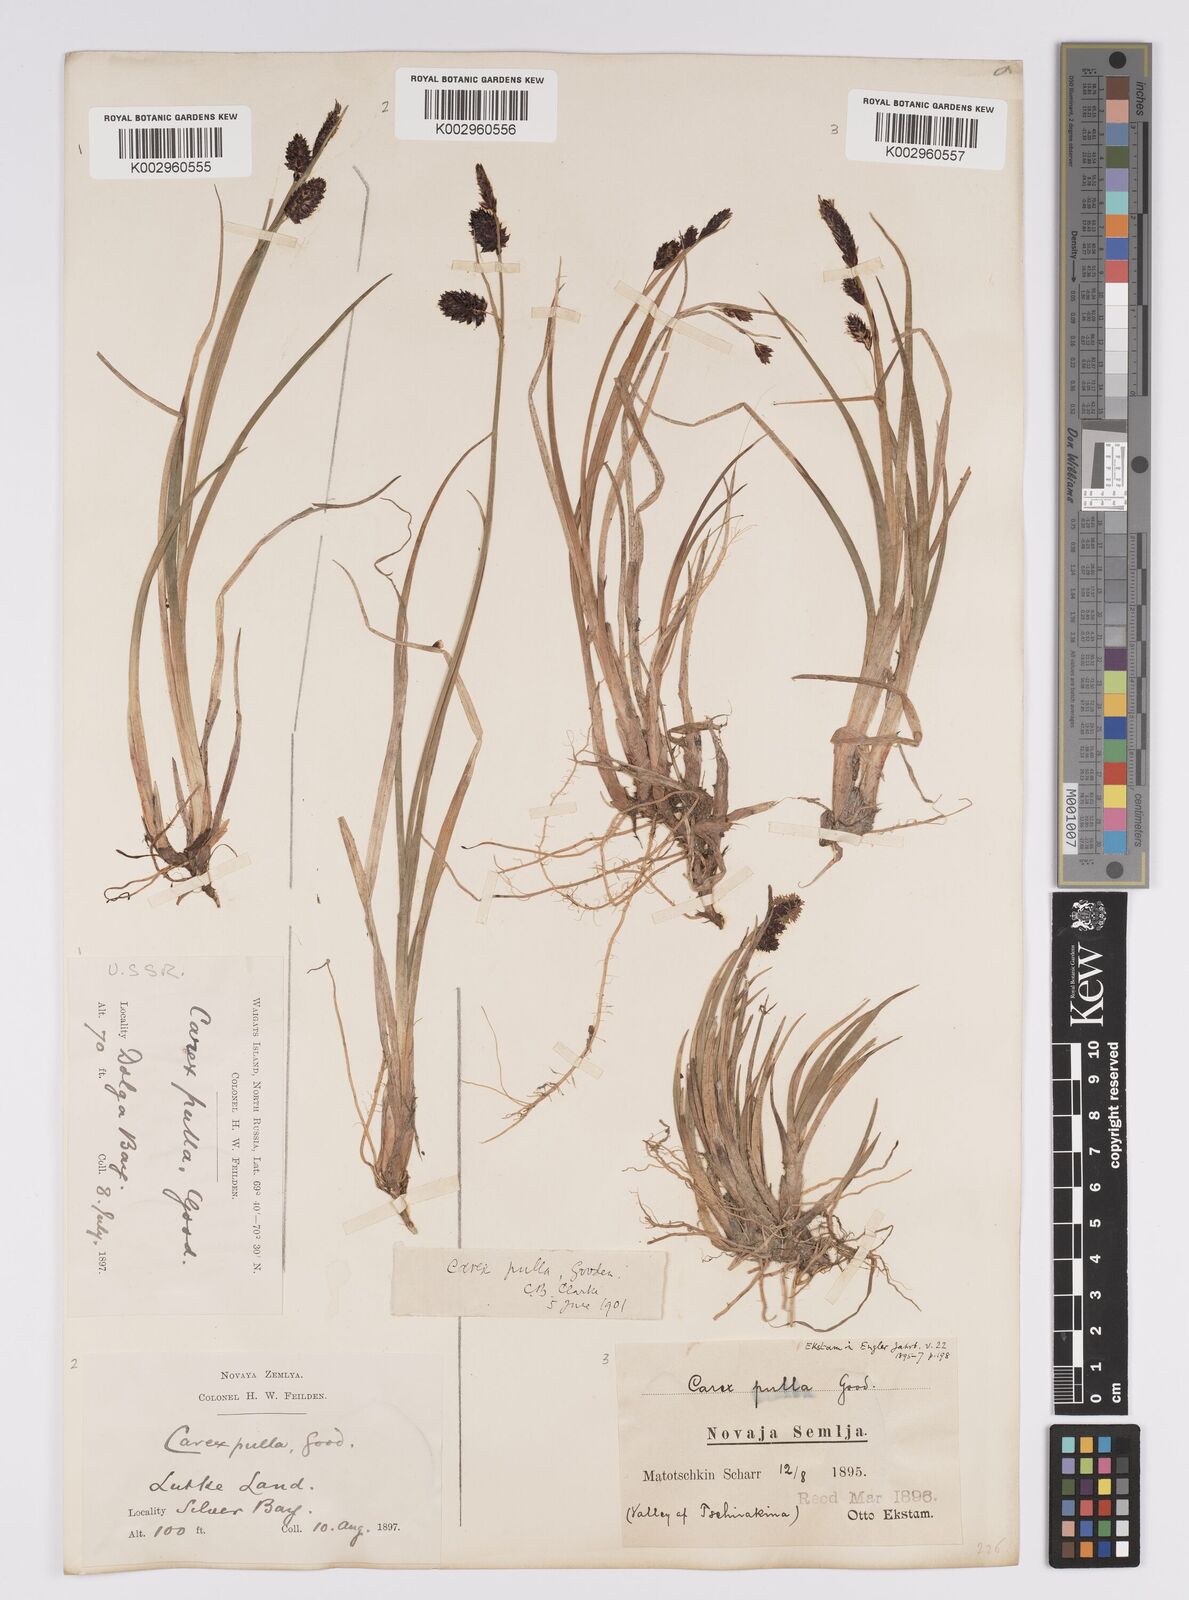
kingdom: Plantae
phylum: Tracheophyta
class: Liliopsida
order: Poales
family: Cyperaceae
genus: Carex
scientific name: Carex saxatilis
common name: Russet sedge
